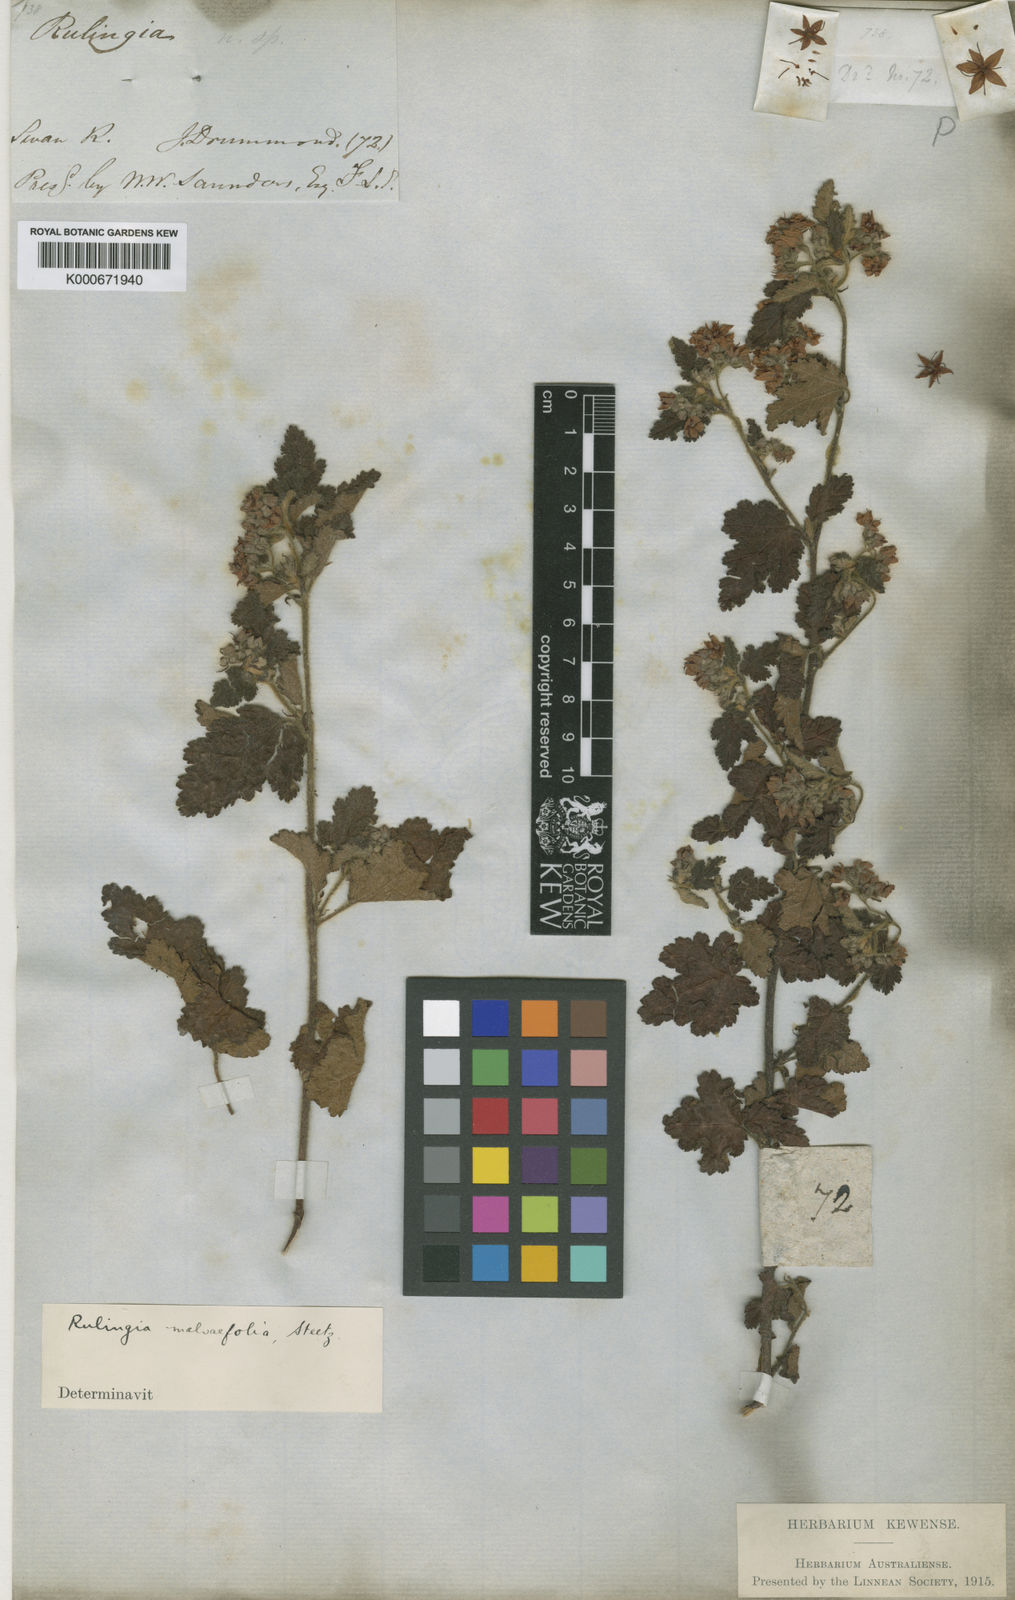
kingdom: Plantae
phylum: Tracheophyta
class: Magnoliopsida
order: Malvales
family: Malvaceae
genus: Commersonia
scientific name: Commersonia corniculata
